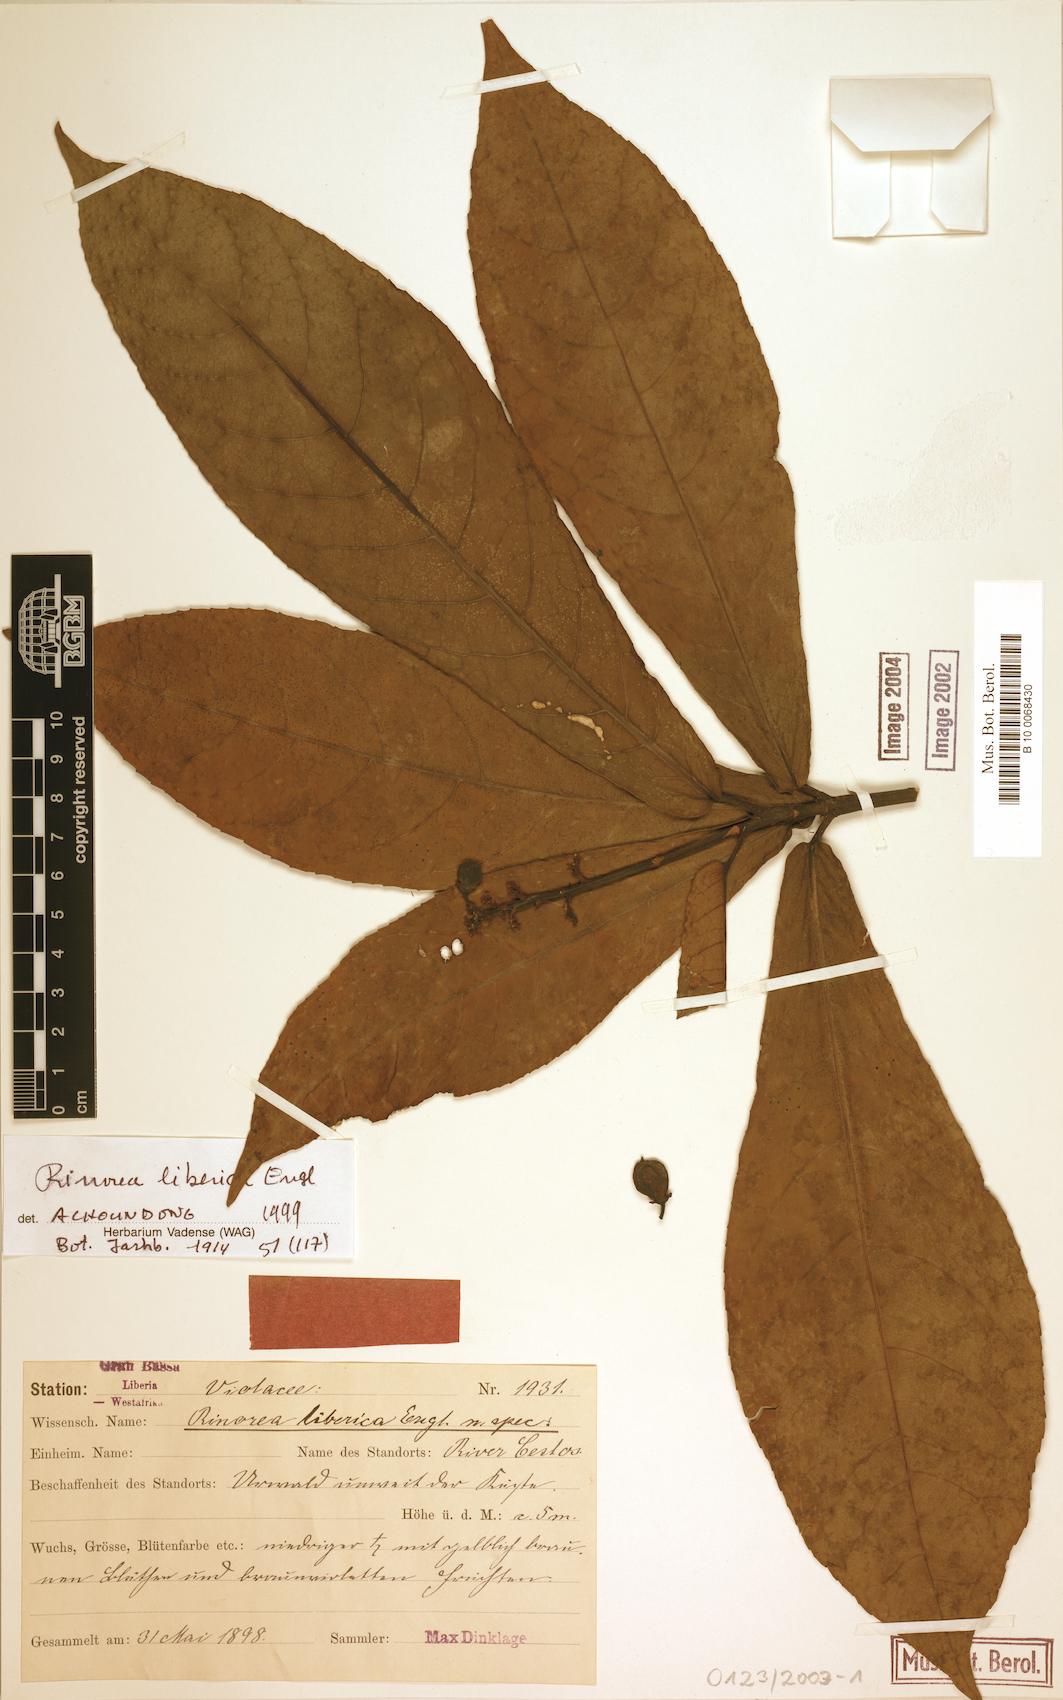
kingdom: Plantae
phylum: Tracheophyta
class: Magnoliopsida
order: Malpighiales
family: Violaceae
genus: Rinorea
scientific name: Rinorea liberica
